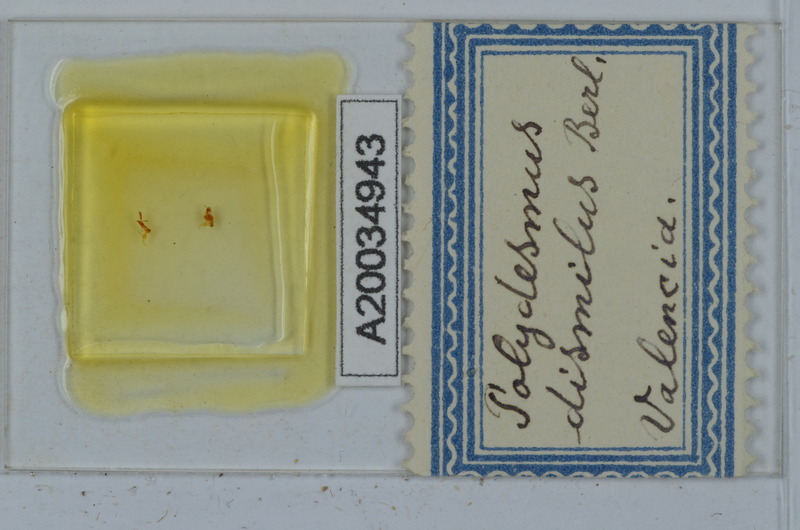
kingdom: Animalia
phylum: Arthropoda
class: Diplopoda
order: Polydesmida
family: Polydesmidae
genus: Propolydesmus
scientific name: Propolydesmus dismilus
